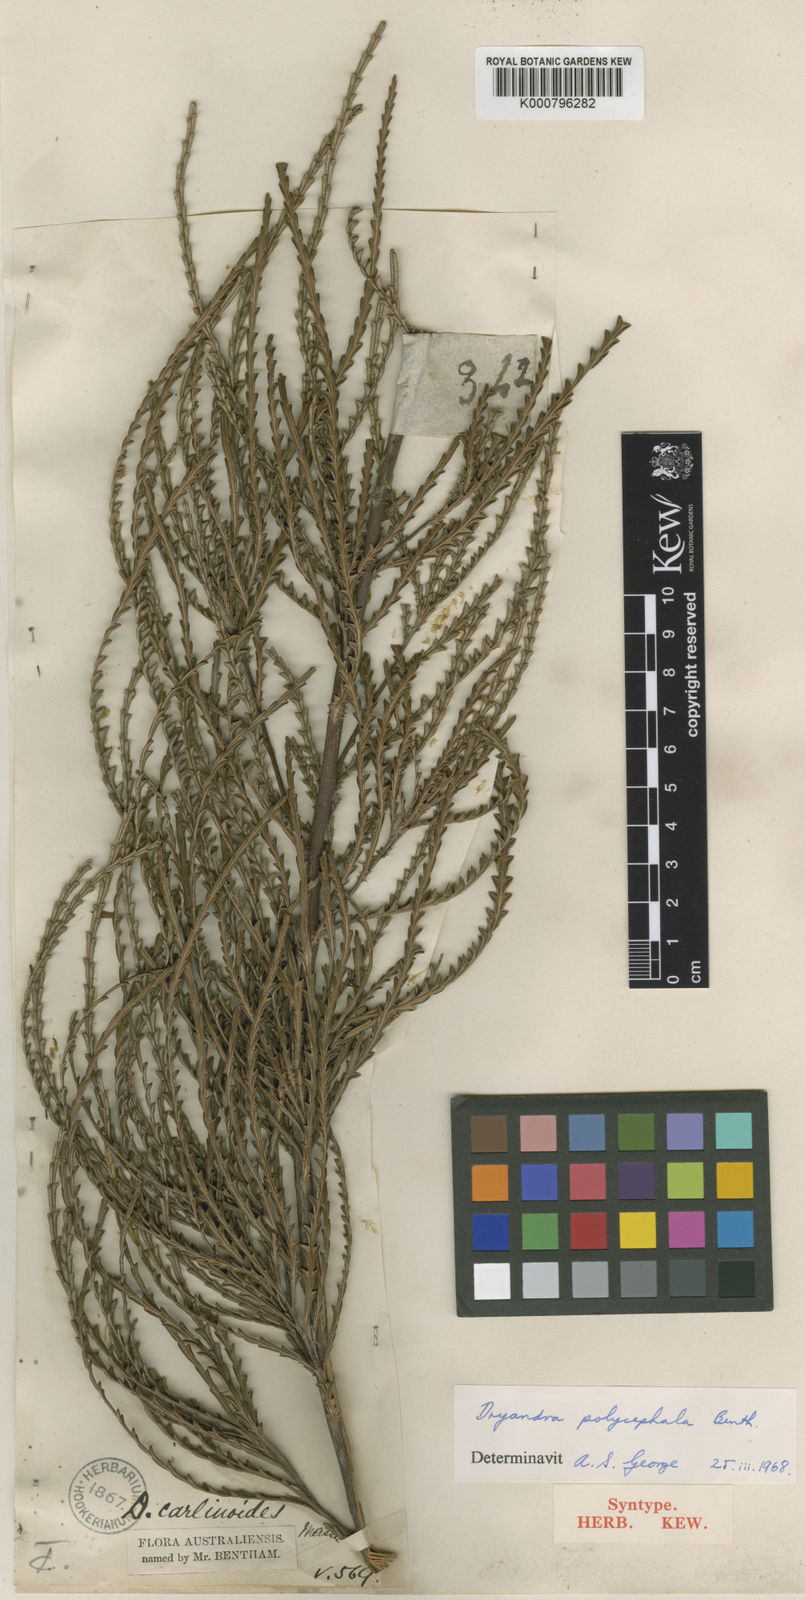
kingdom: Plantae
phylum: Tracheophyta
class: Magnoliopsida
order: Proteales
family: Proteaceae
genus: Banksia
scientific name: Banksia polycephala
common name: Many-head dryandra
